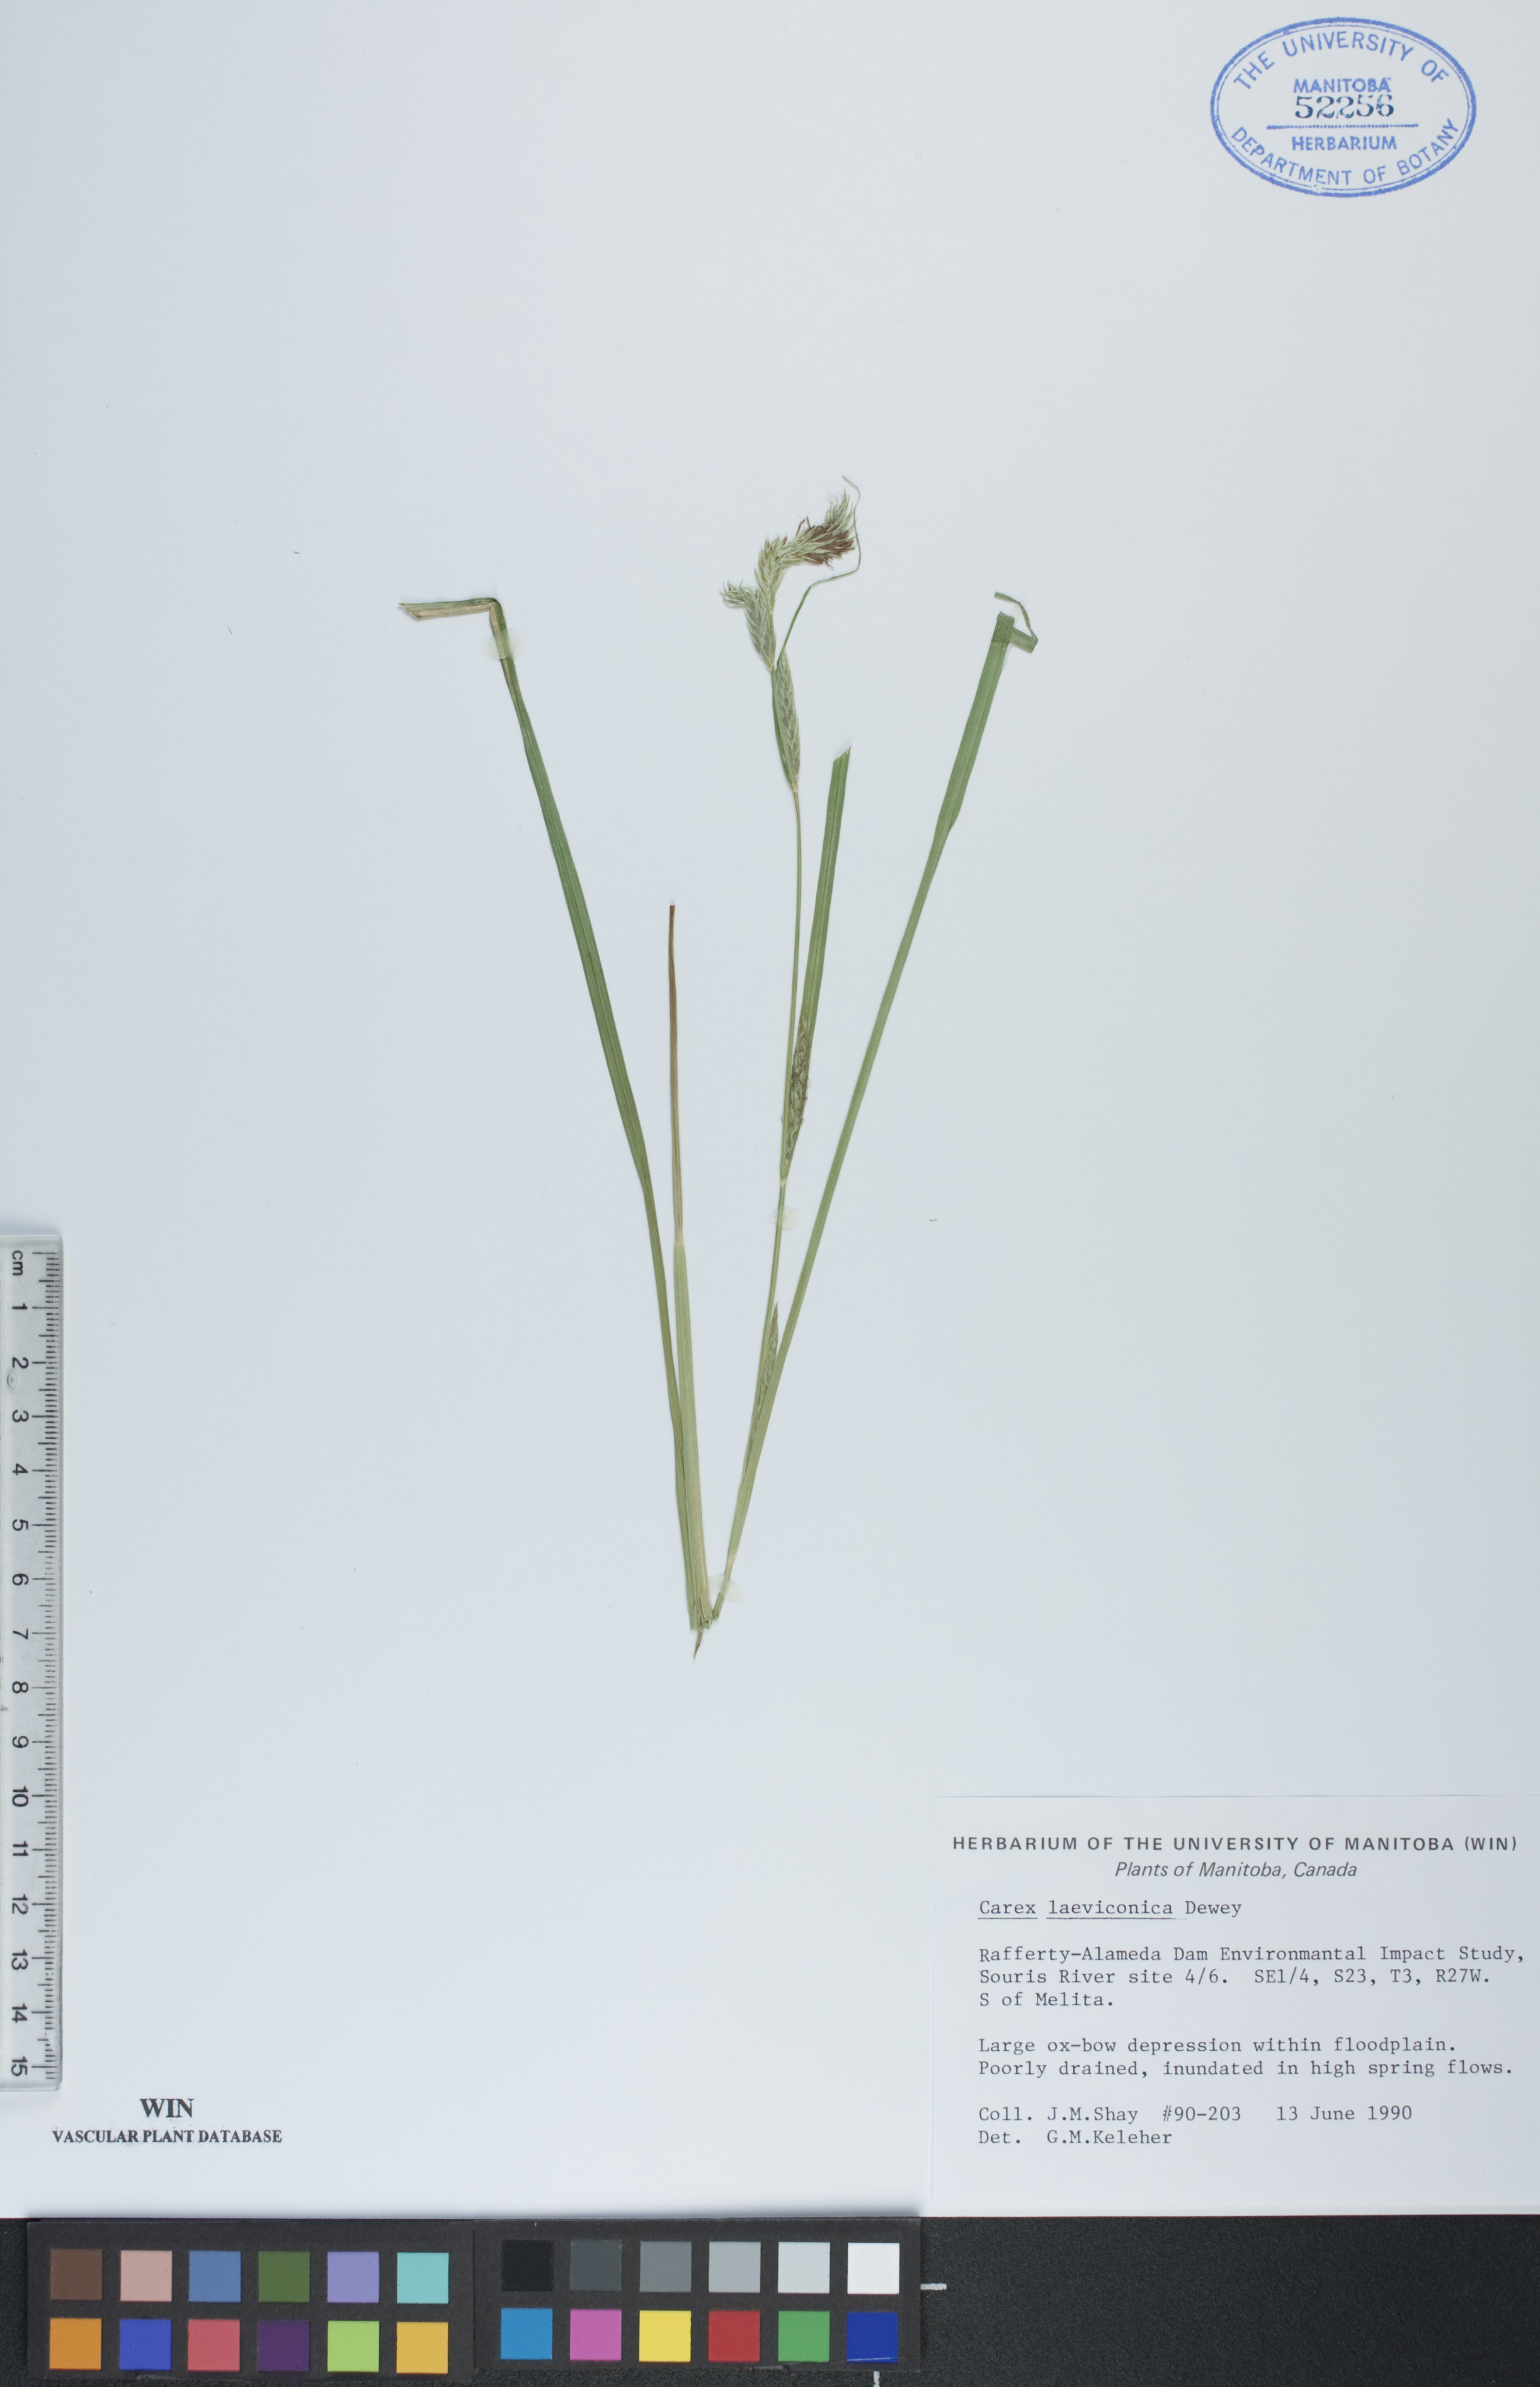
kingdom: Plantae
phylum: Tracheophyta
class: Liliopsida
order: Poales
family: Cyperaceae
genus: Carex
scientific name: Carex laeviconica
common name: Plains slough sedge
